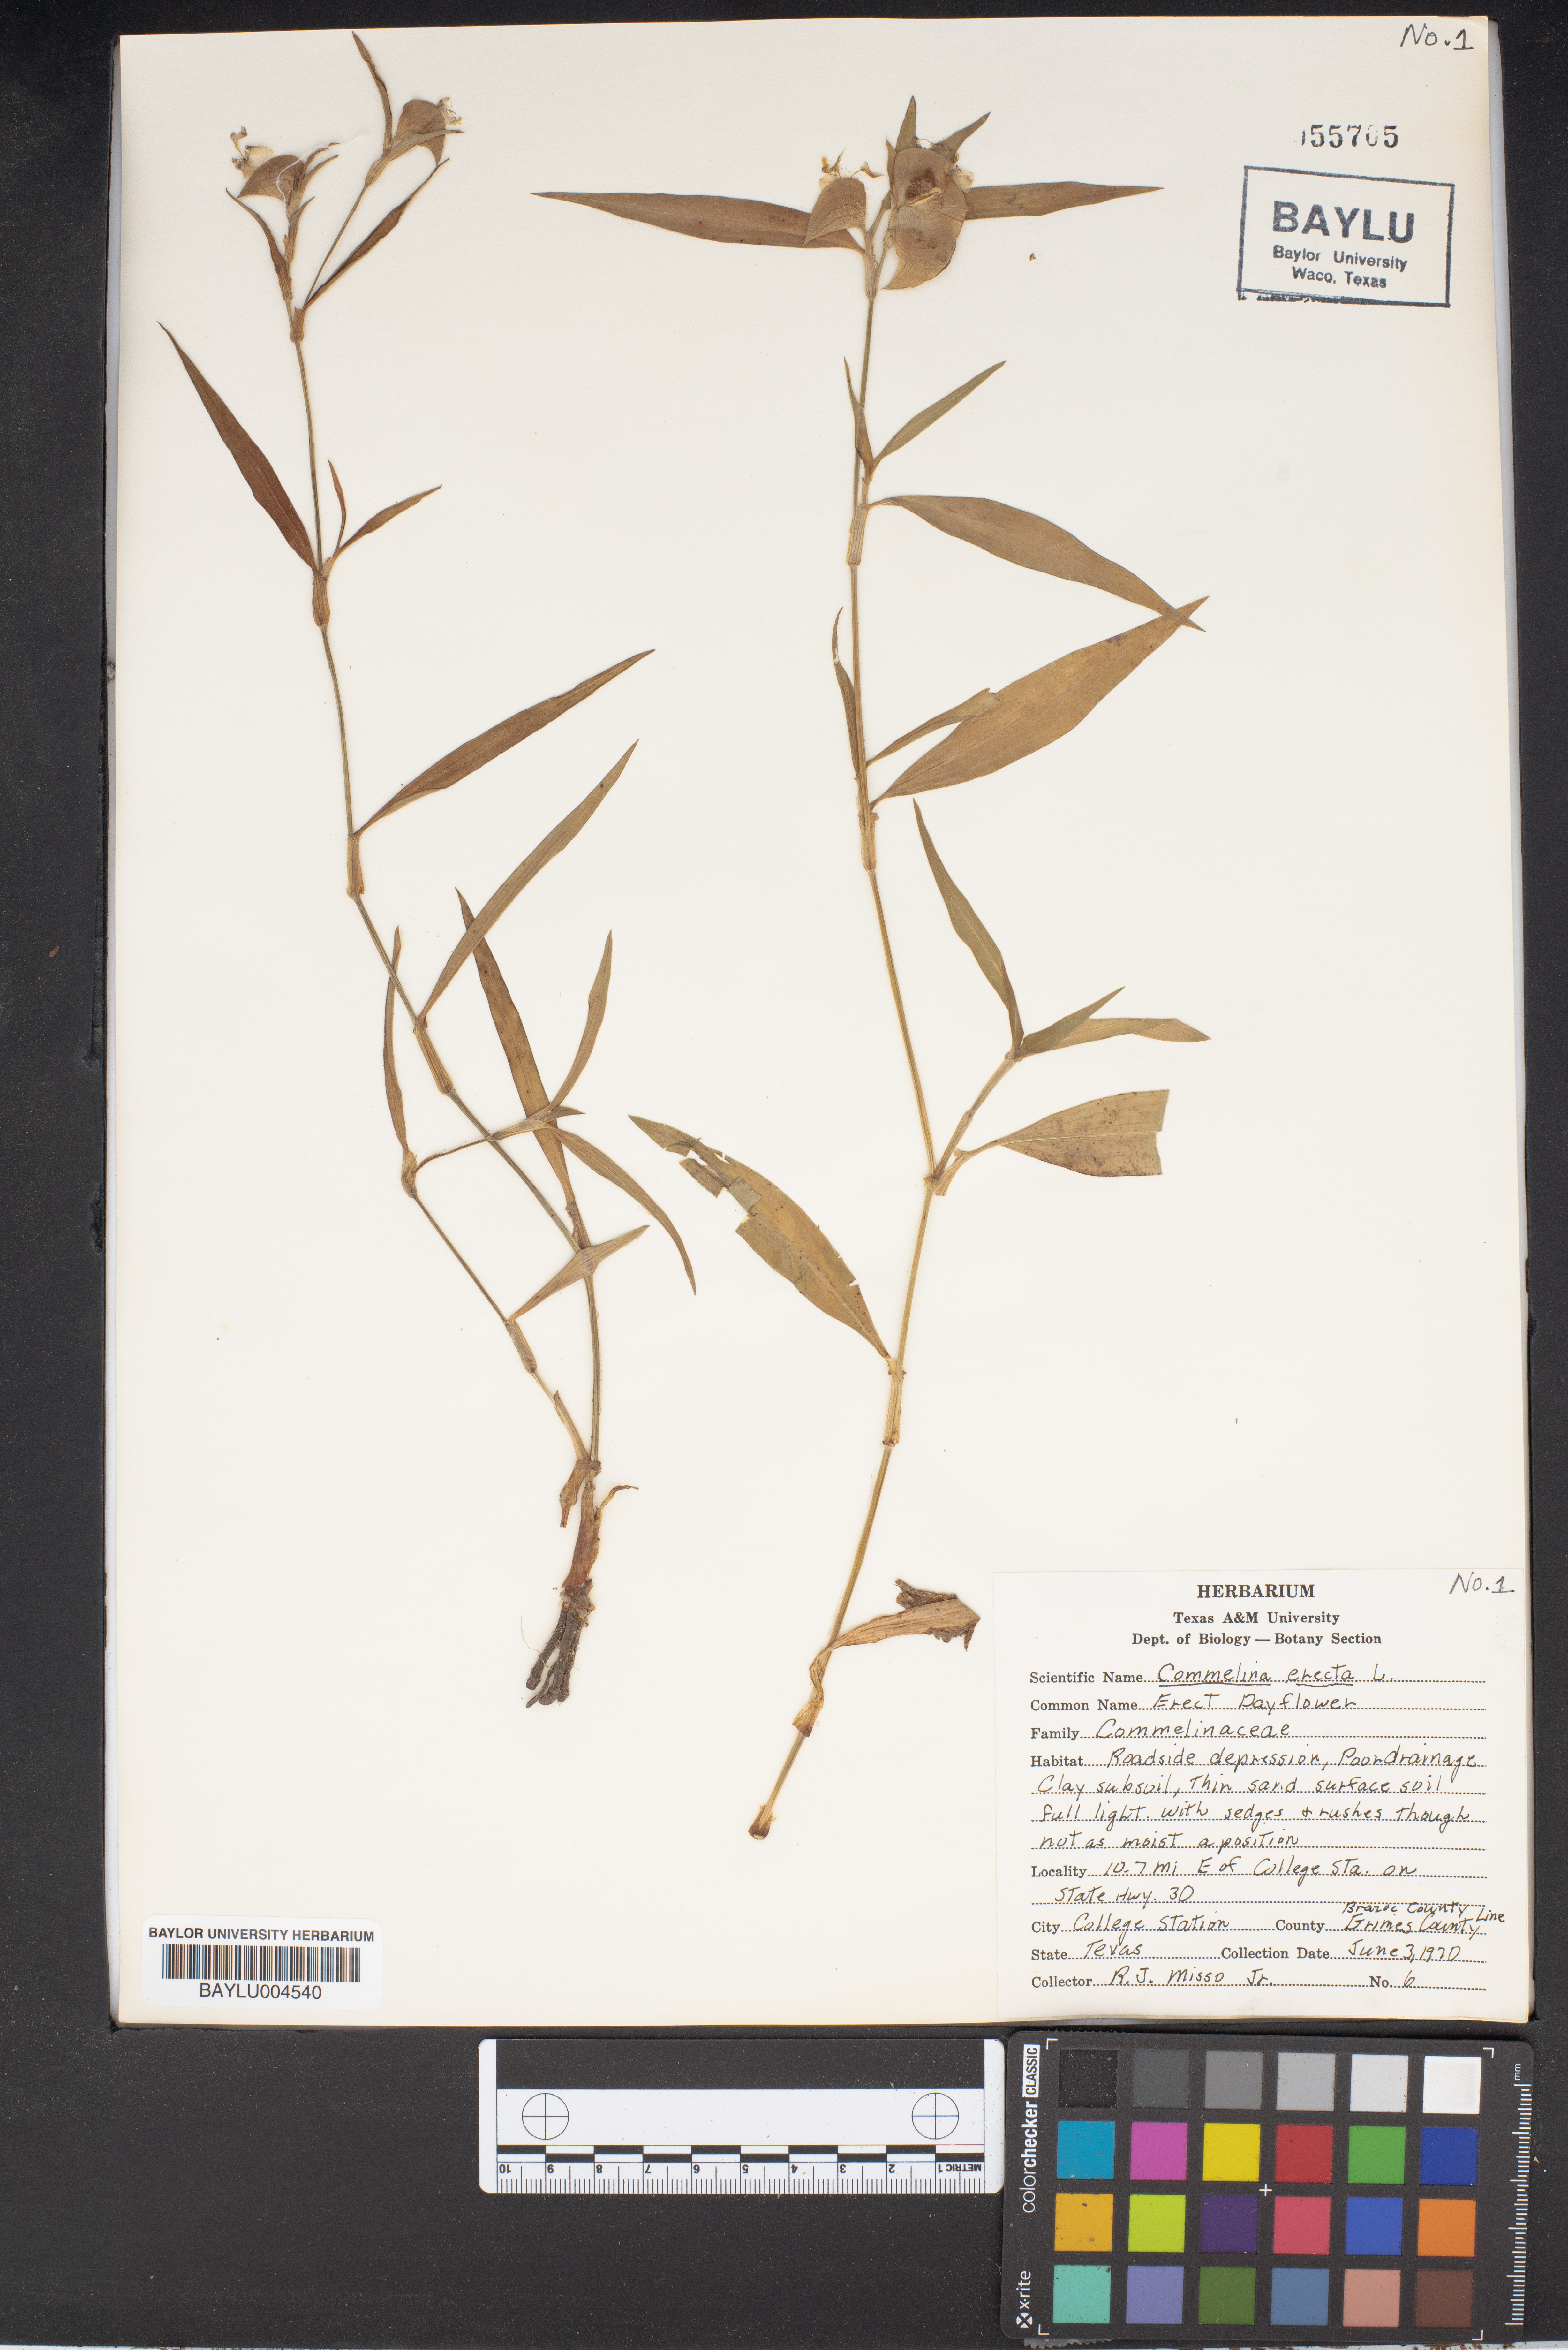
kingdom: Plantae
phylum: Tracheophyta
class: Liliopsida
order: Commelinales
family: Commelinaceae
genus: Commelina
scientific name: Commelina erecta
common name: Blousel blommetjie
